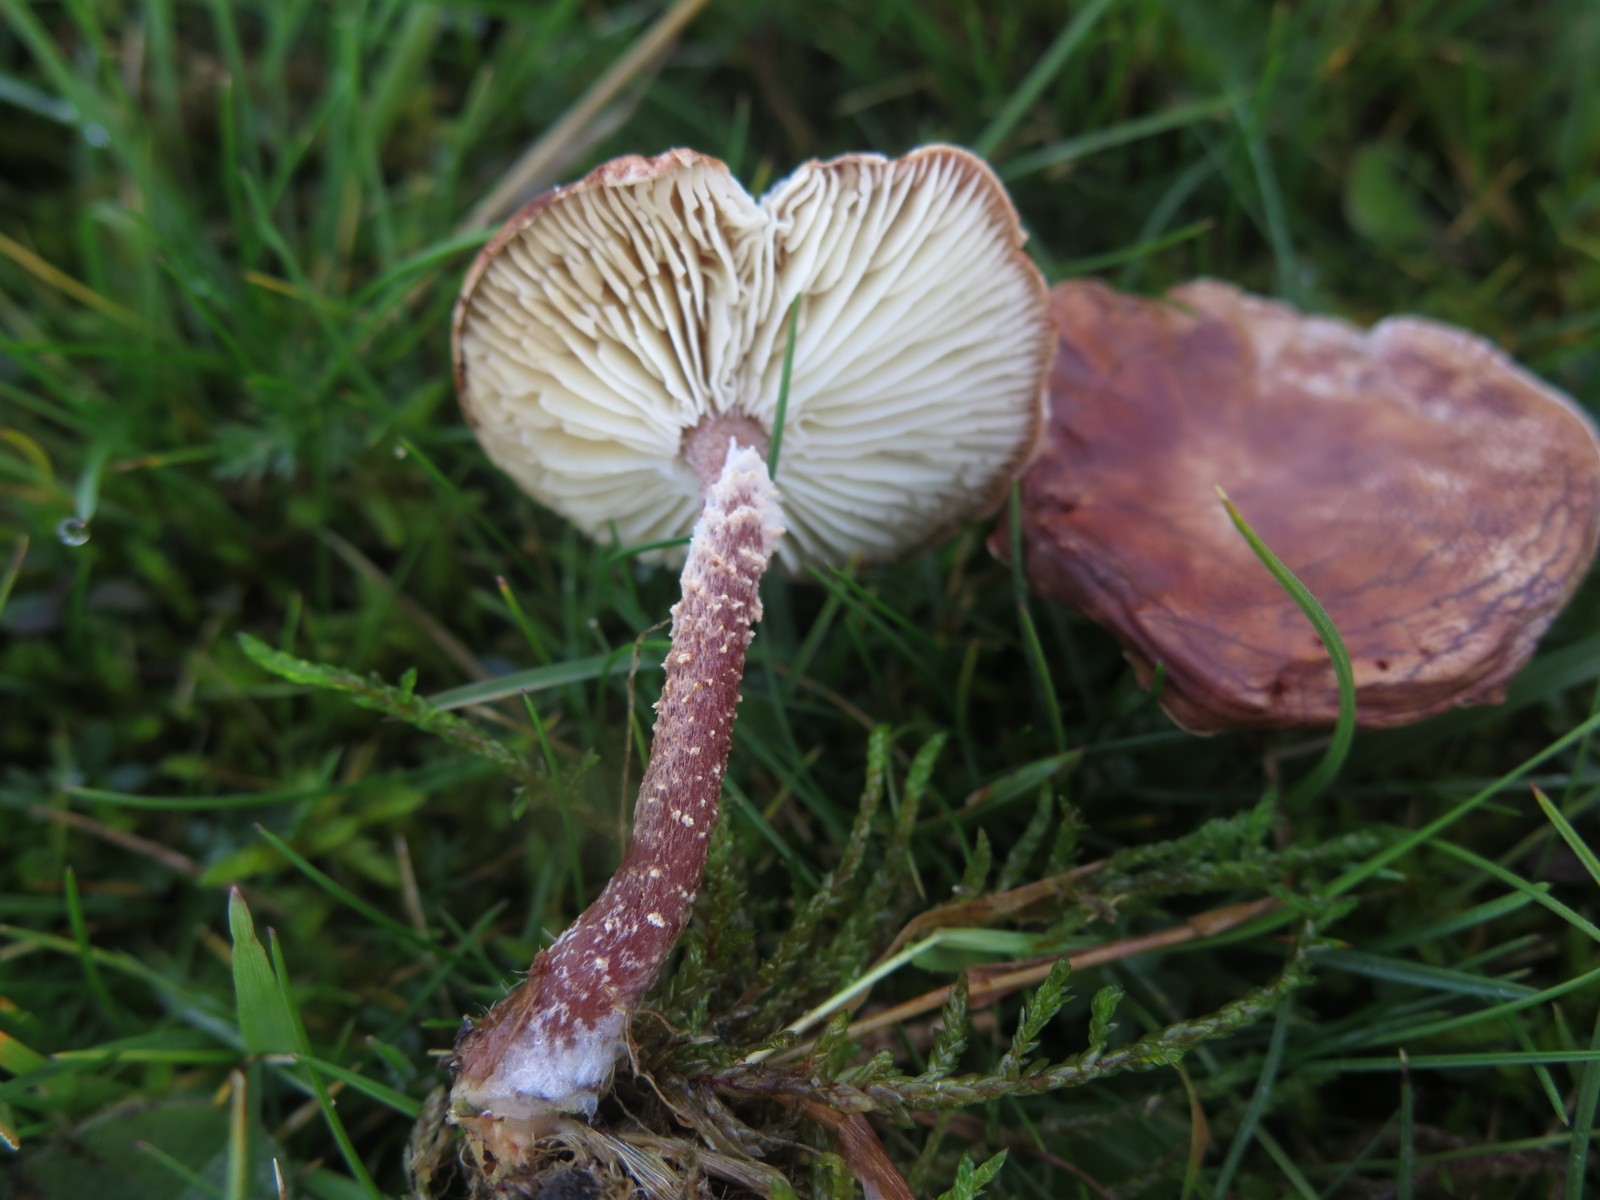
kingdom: Fungi
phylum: Basidiomycota
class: Agaricomycetes
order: Agaricales
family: Agaricaceae
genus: Cystodermella
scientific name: Cystodermella granulosa
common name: kliddet grynhat
